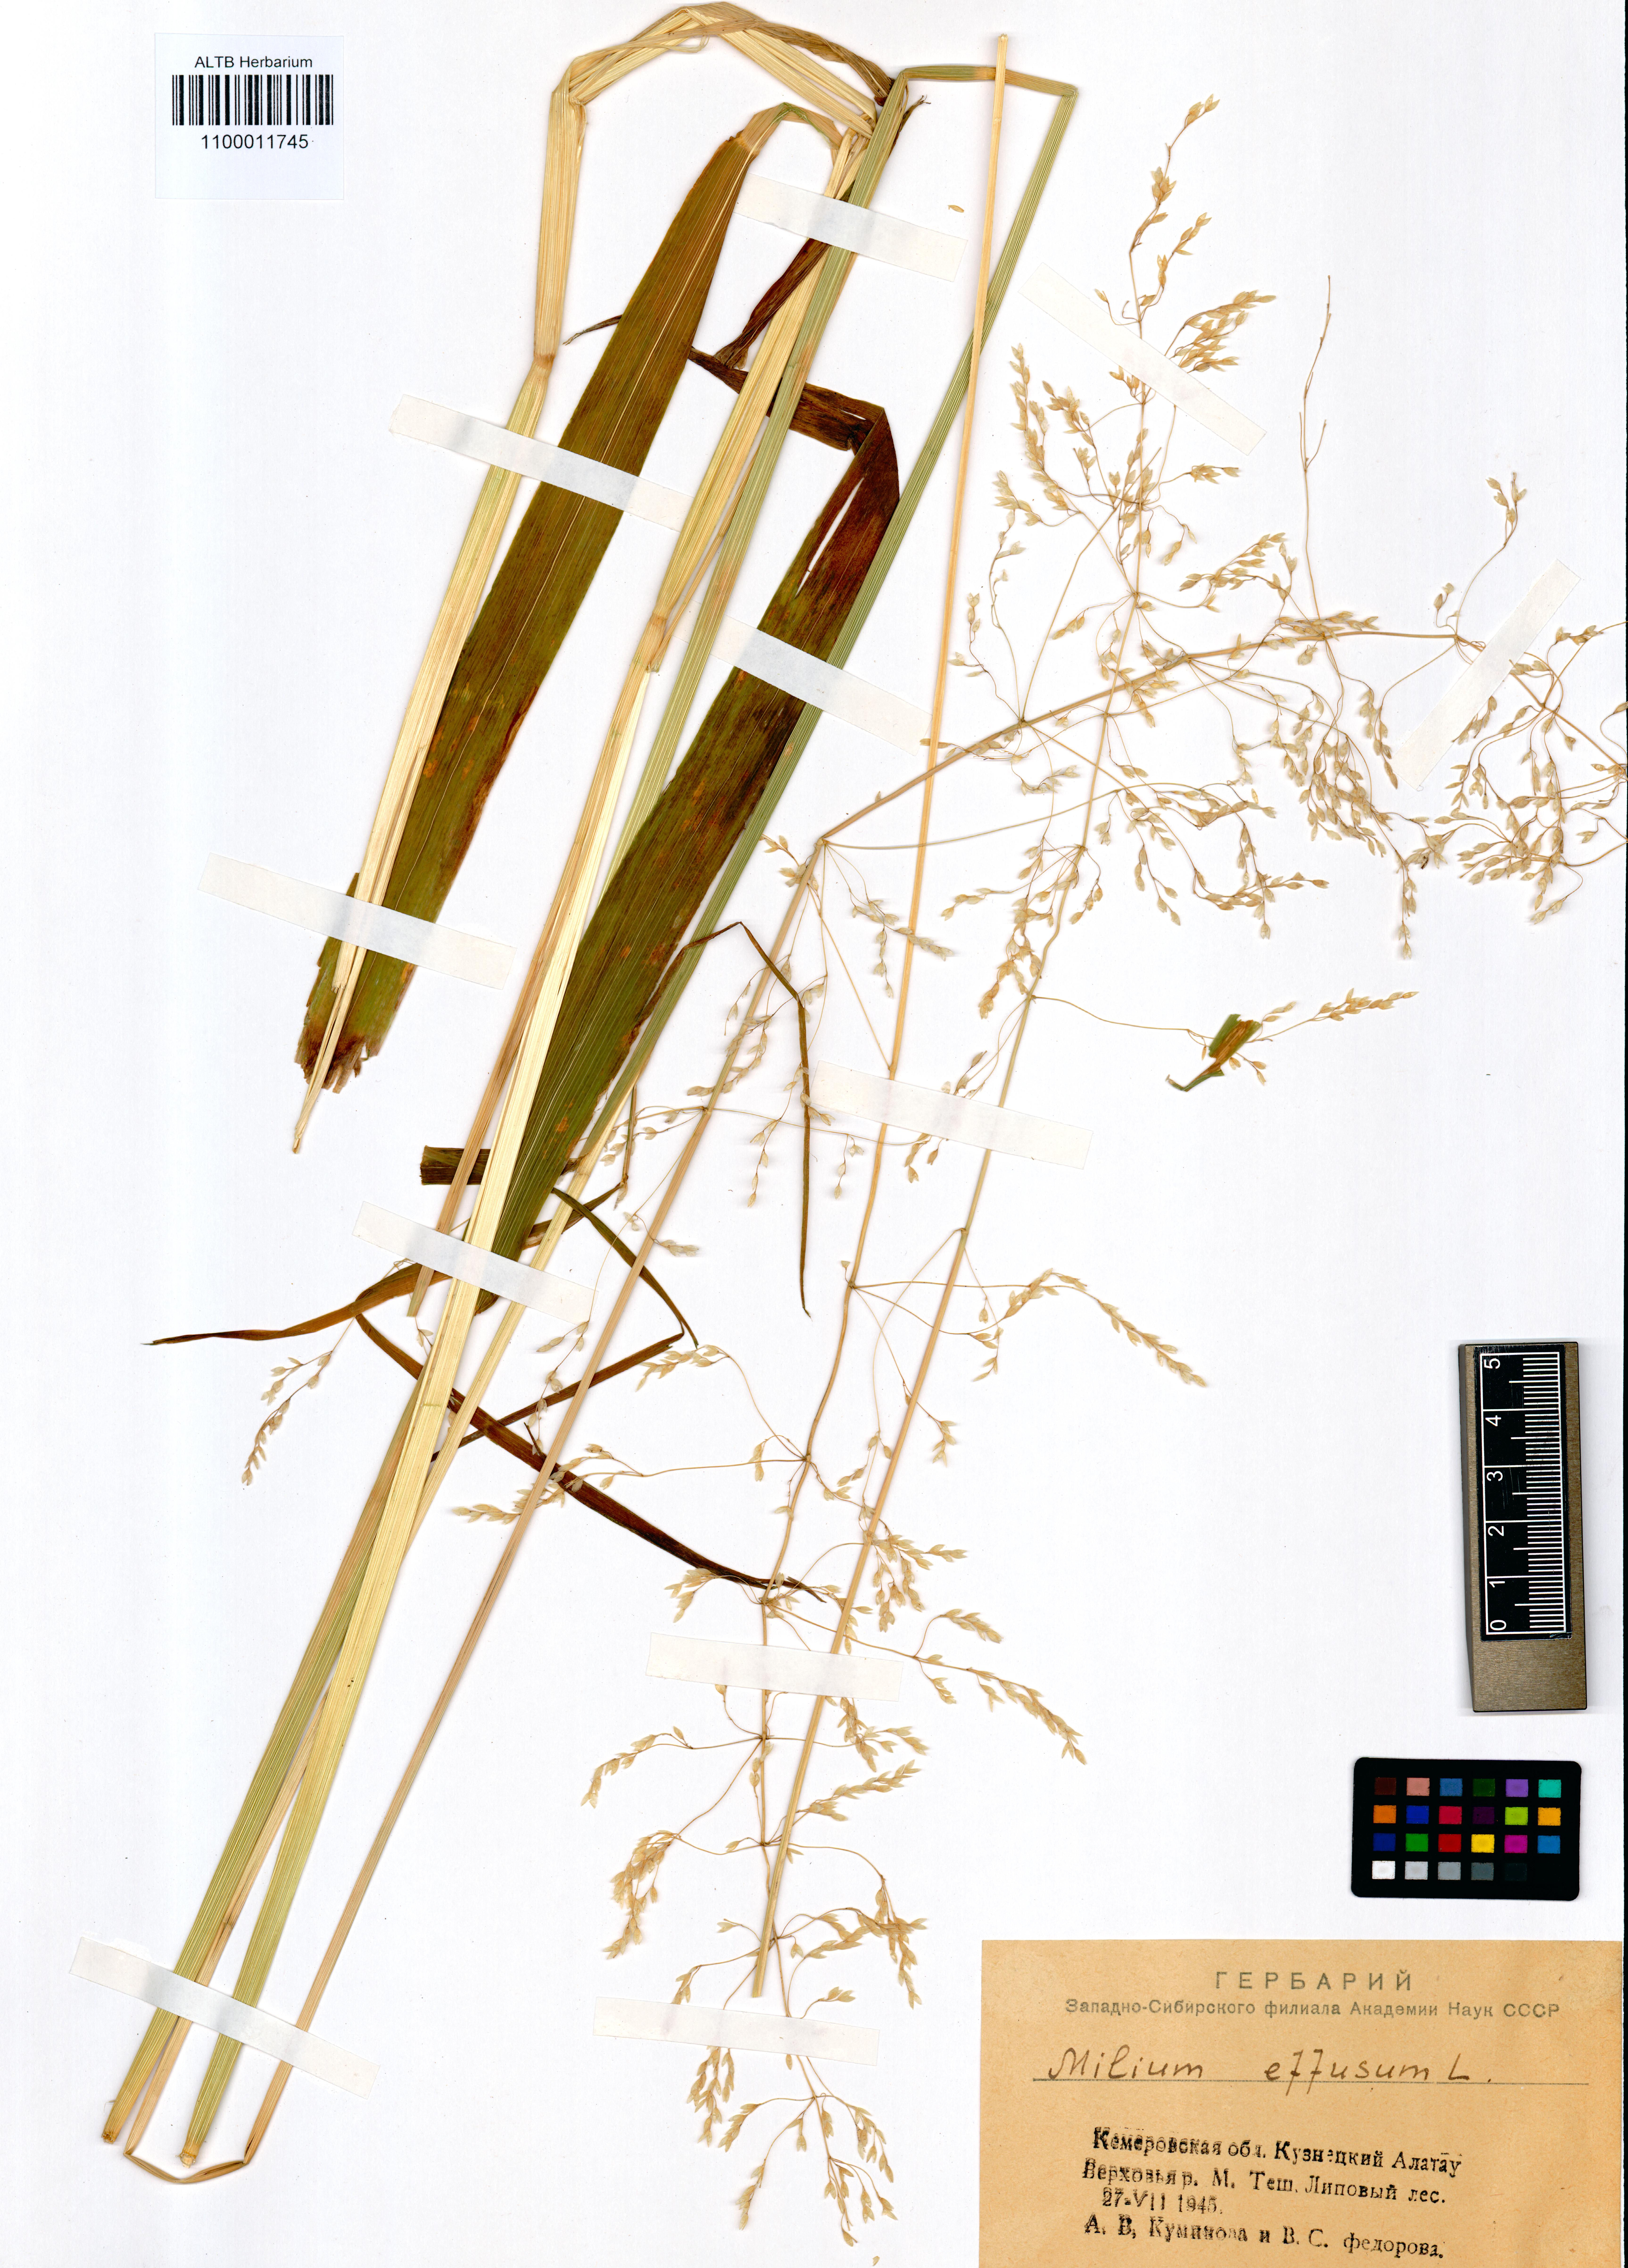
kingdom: Plantae
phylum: Tracheophyta
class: Liliopsida
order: Poales
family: Poaceae
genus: Milium
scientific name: Milium effusum
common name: Wood millet
